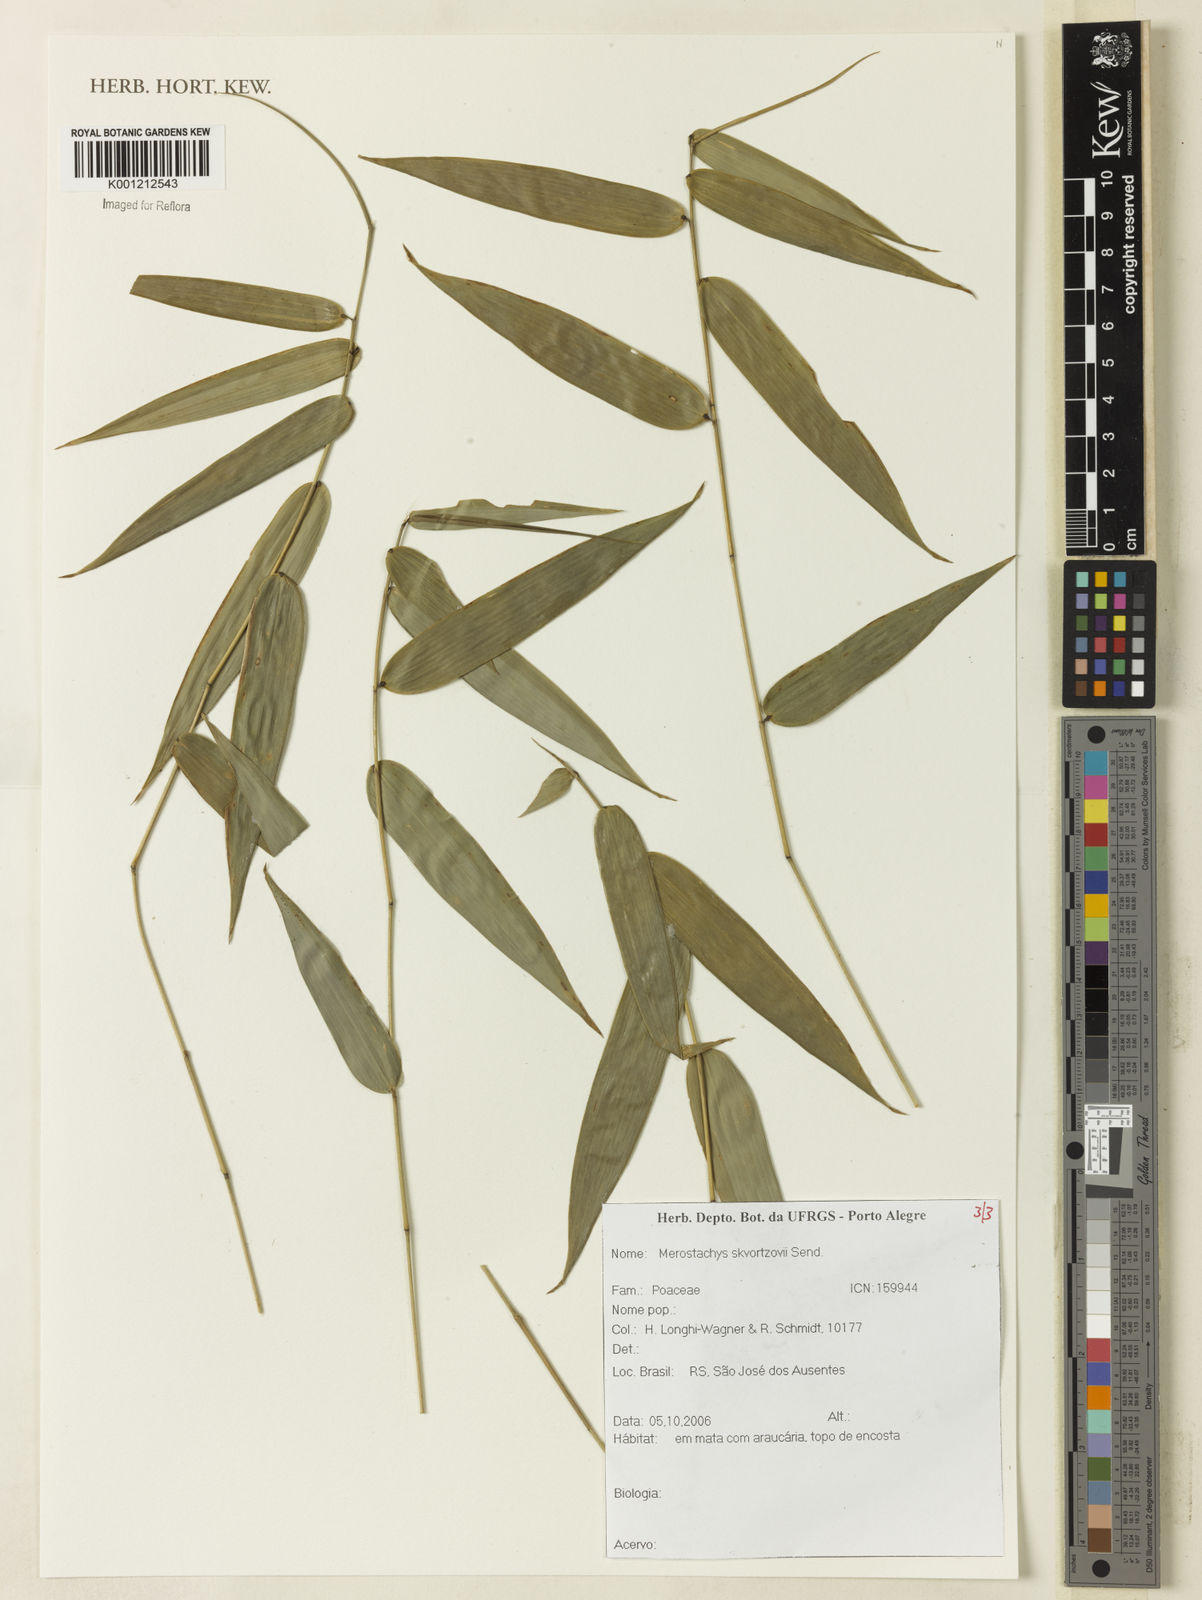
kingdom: Plantae
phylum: Tracheophyta
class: Liliopsida
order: Poales
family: Poaceae
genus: Merostachys
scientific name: Merostachys skvortzovii
